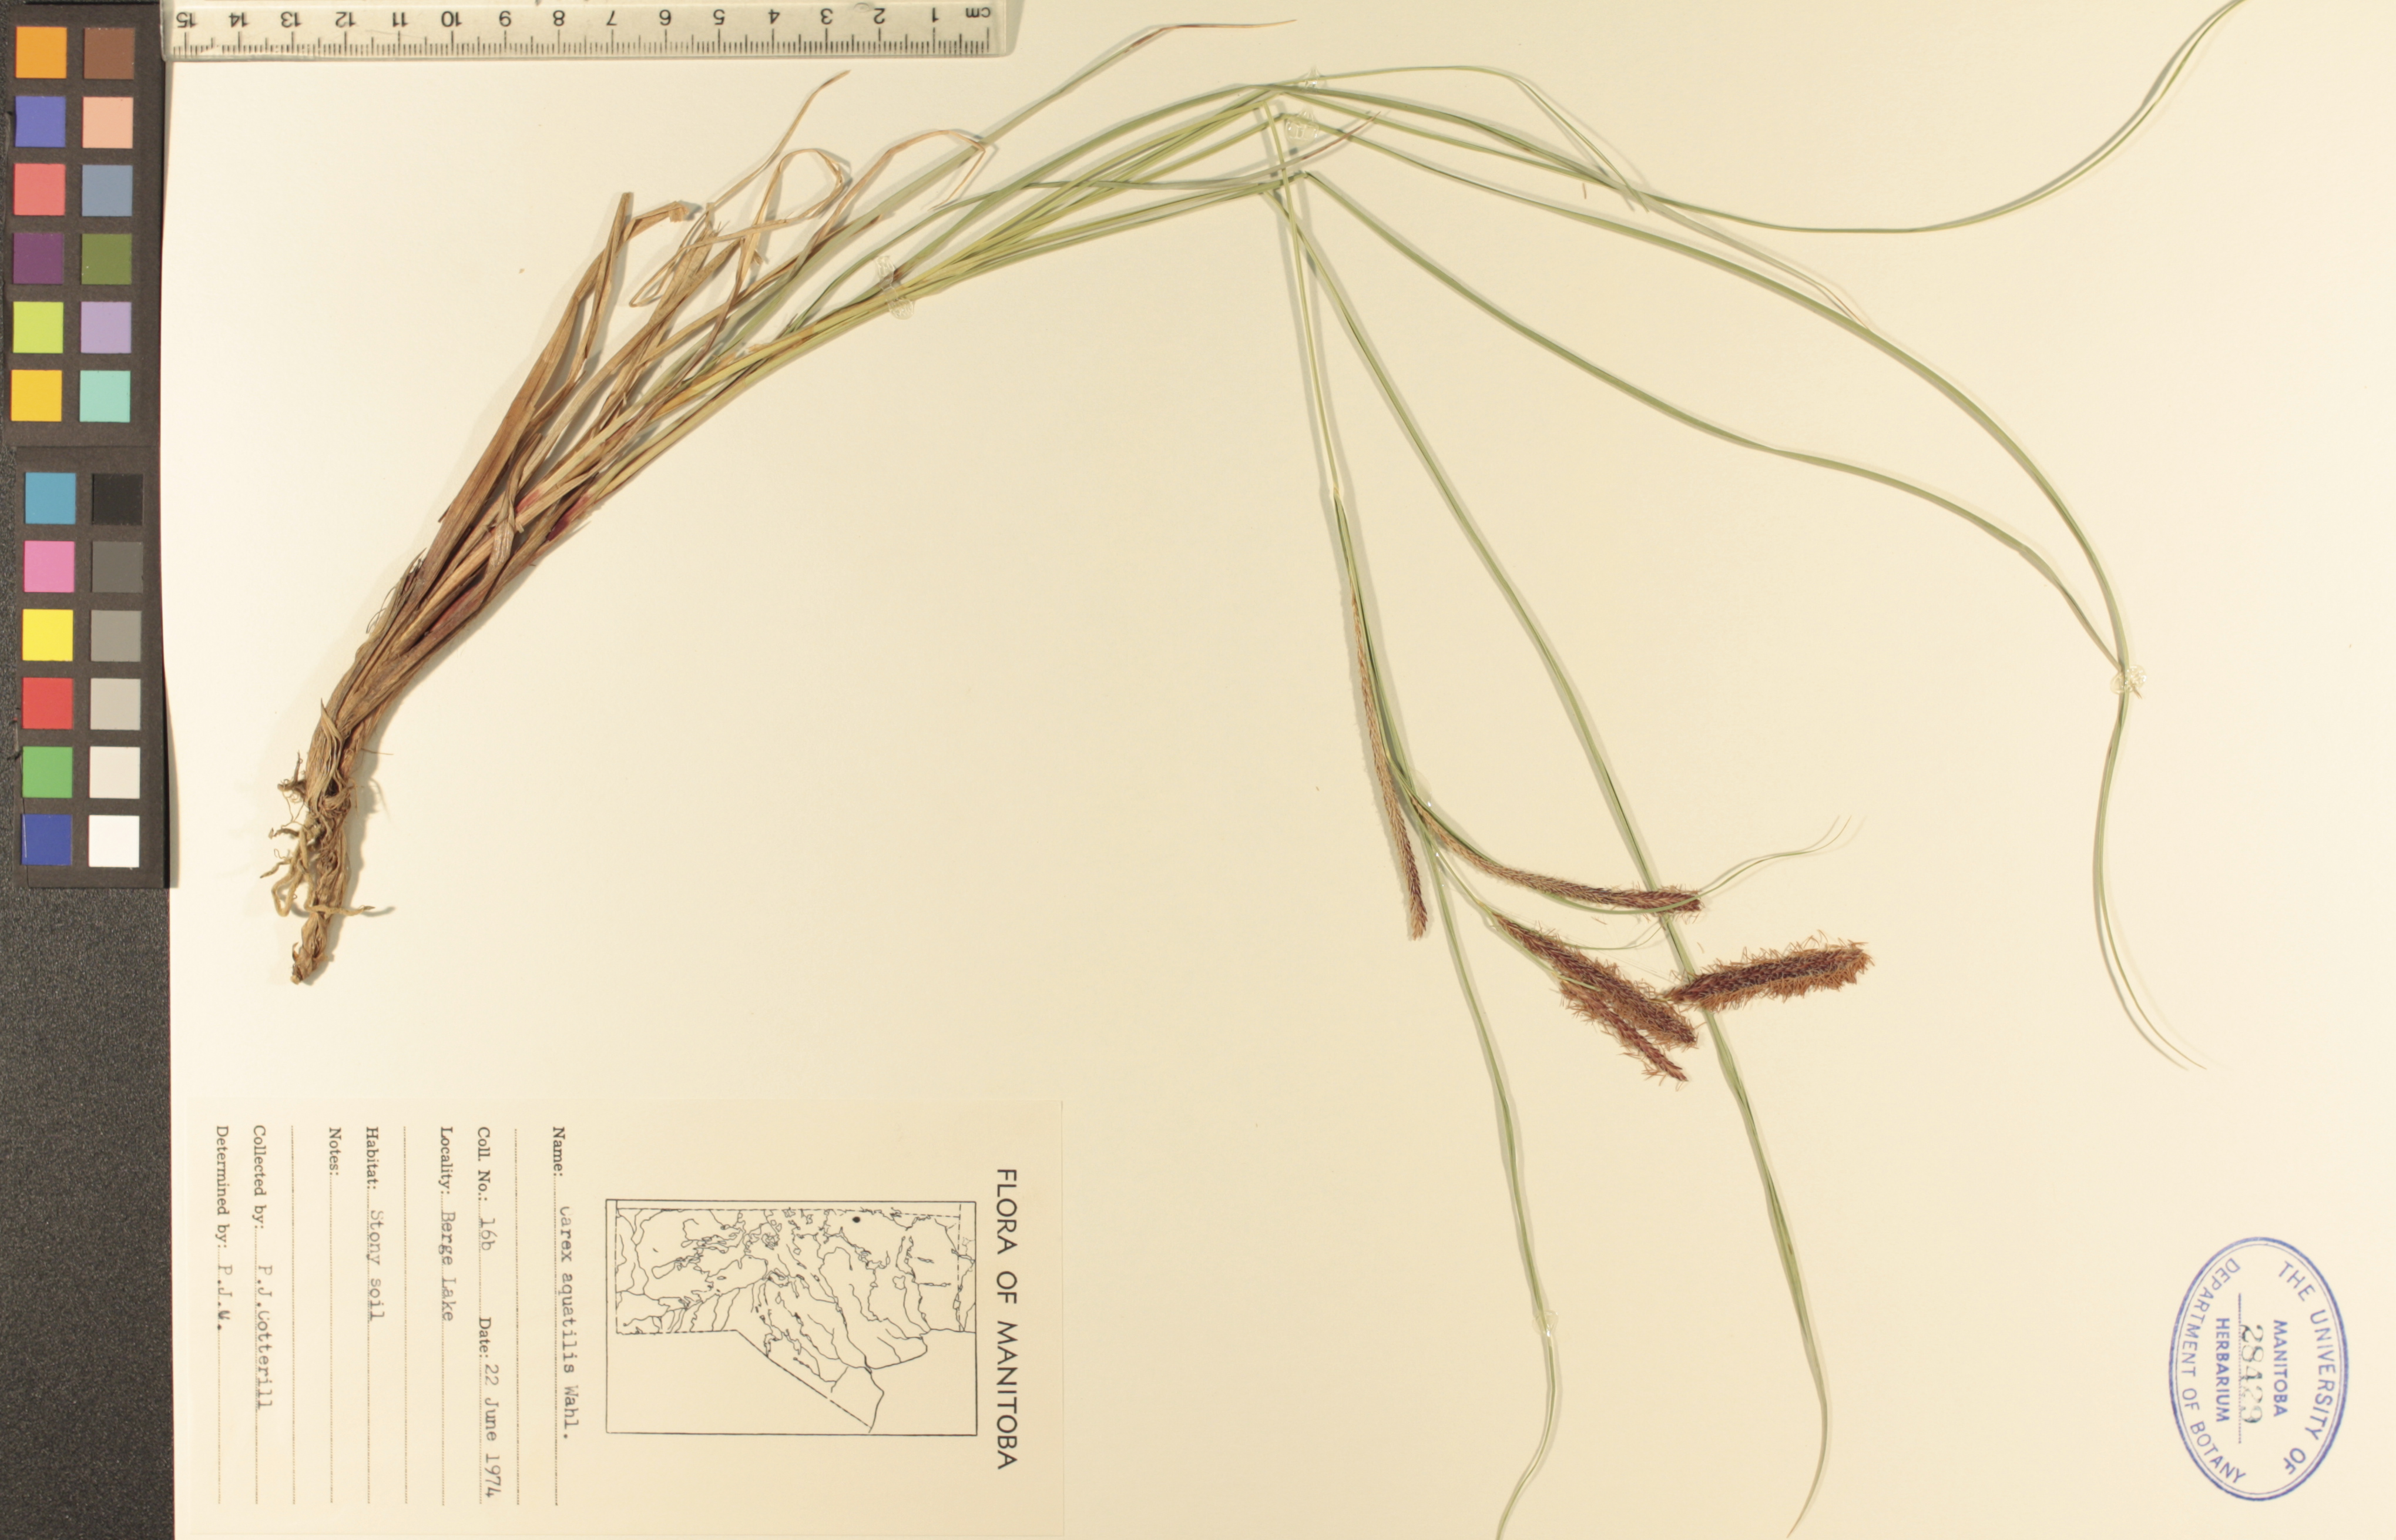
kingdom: Plantae
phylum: Tracheophyta
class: Liliopsida
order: Poales
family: Cyperaceae
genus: Carex
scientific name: Carex aquatilis
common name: Water sedge
